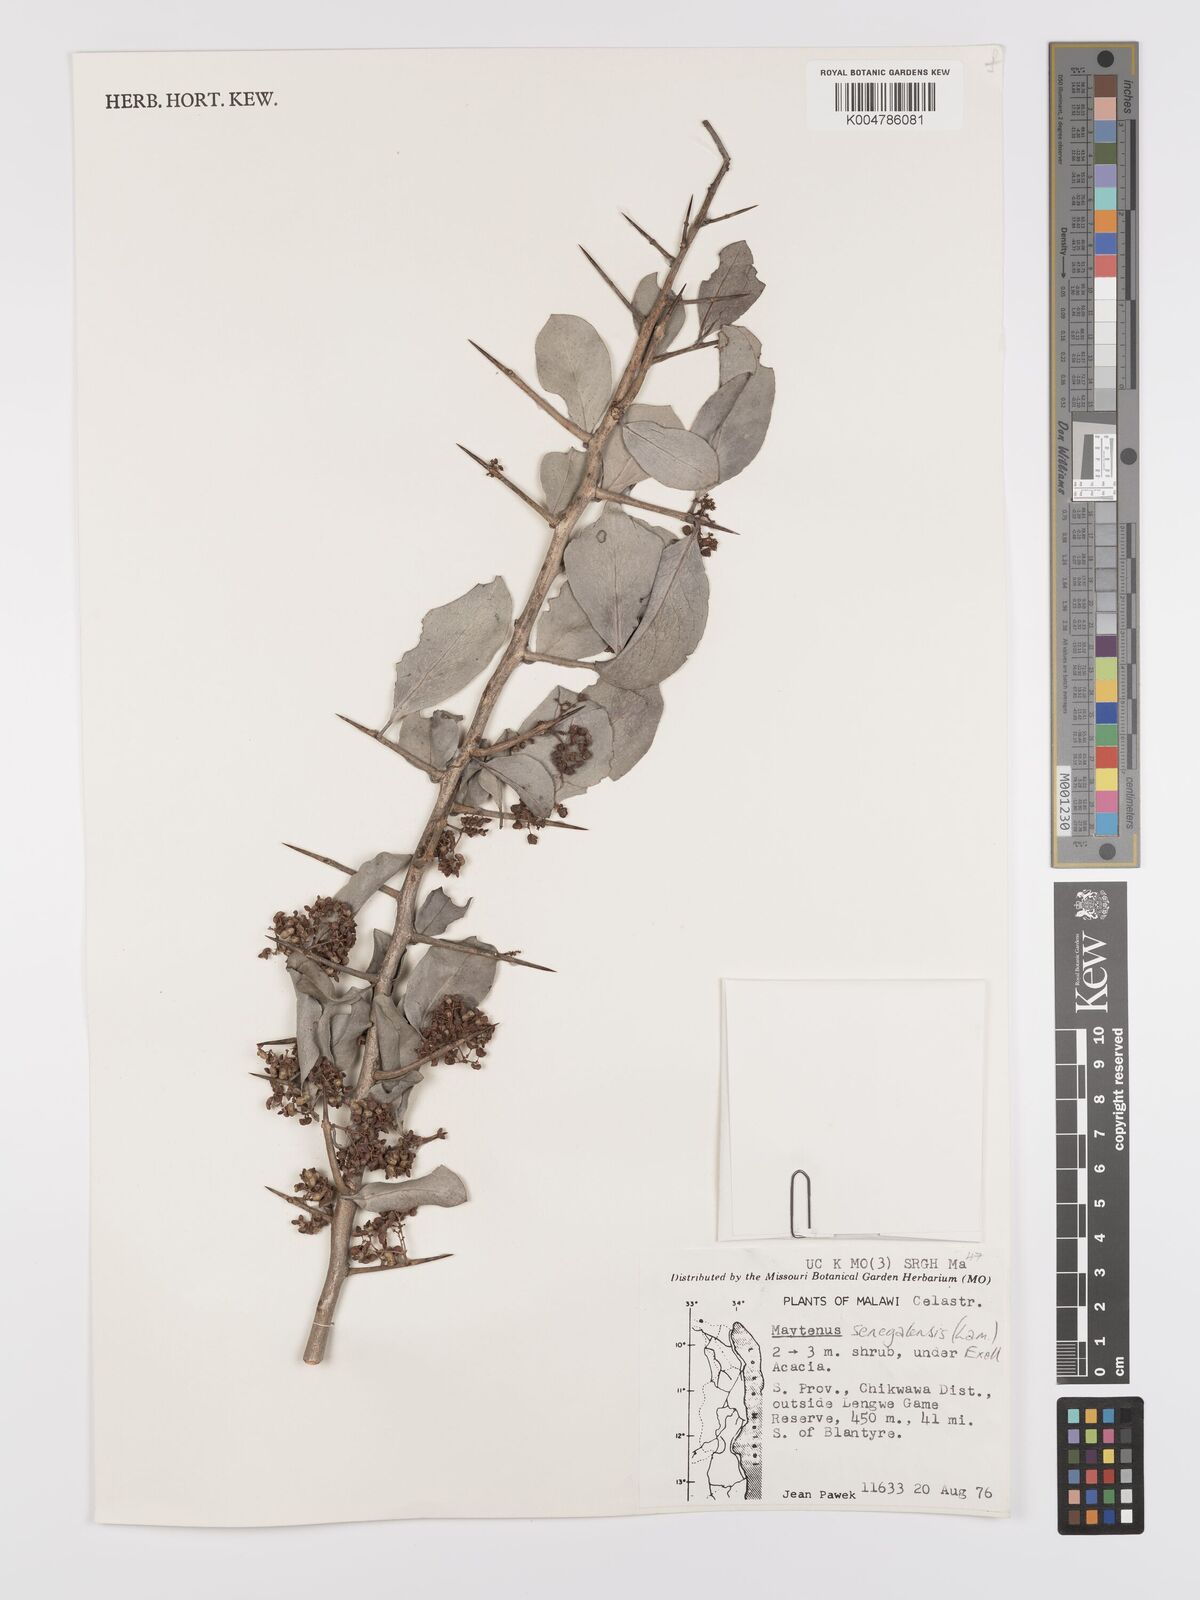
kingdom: Plantae
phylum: Tracheophyta
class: Magnoliopsida
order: Celastrales
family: Celastraceae
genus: Gymnosporia
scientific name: Gymnosporia senegalensis
